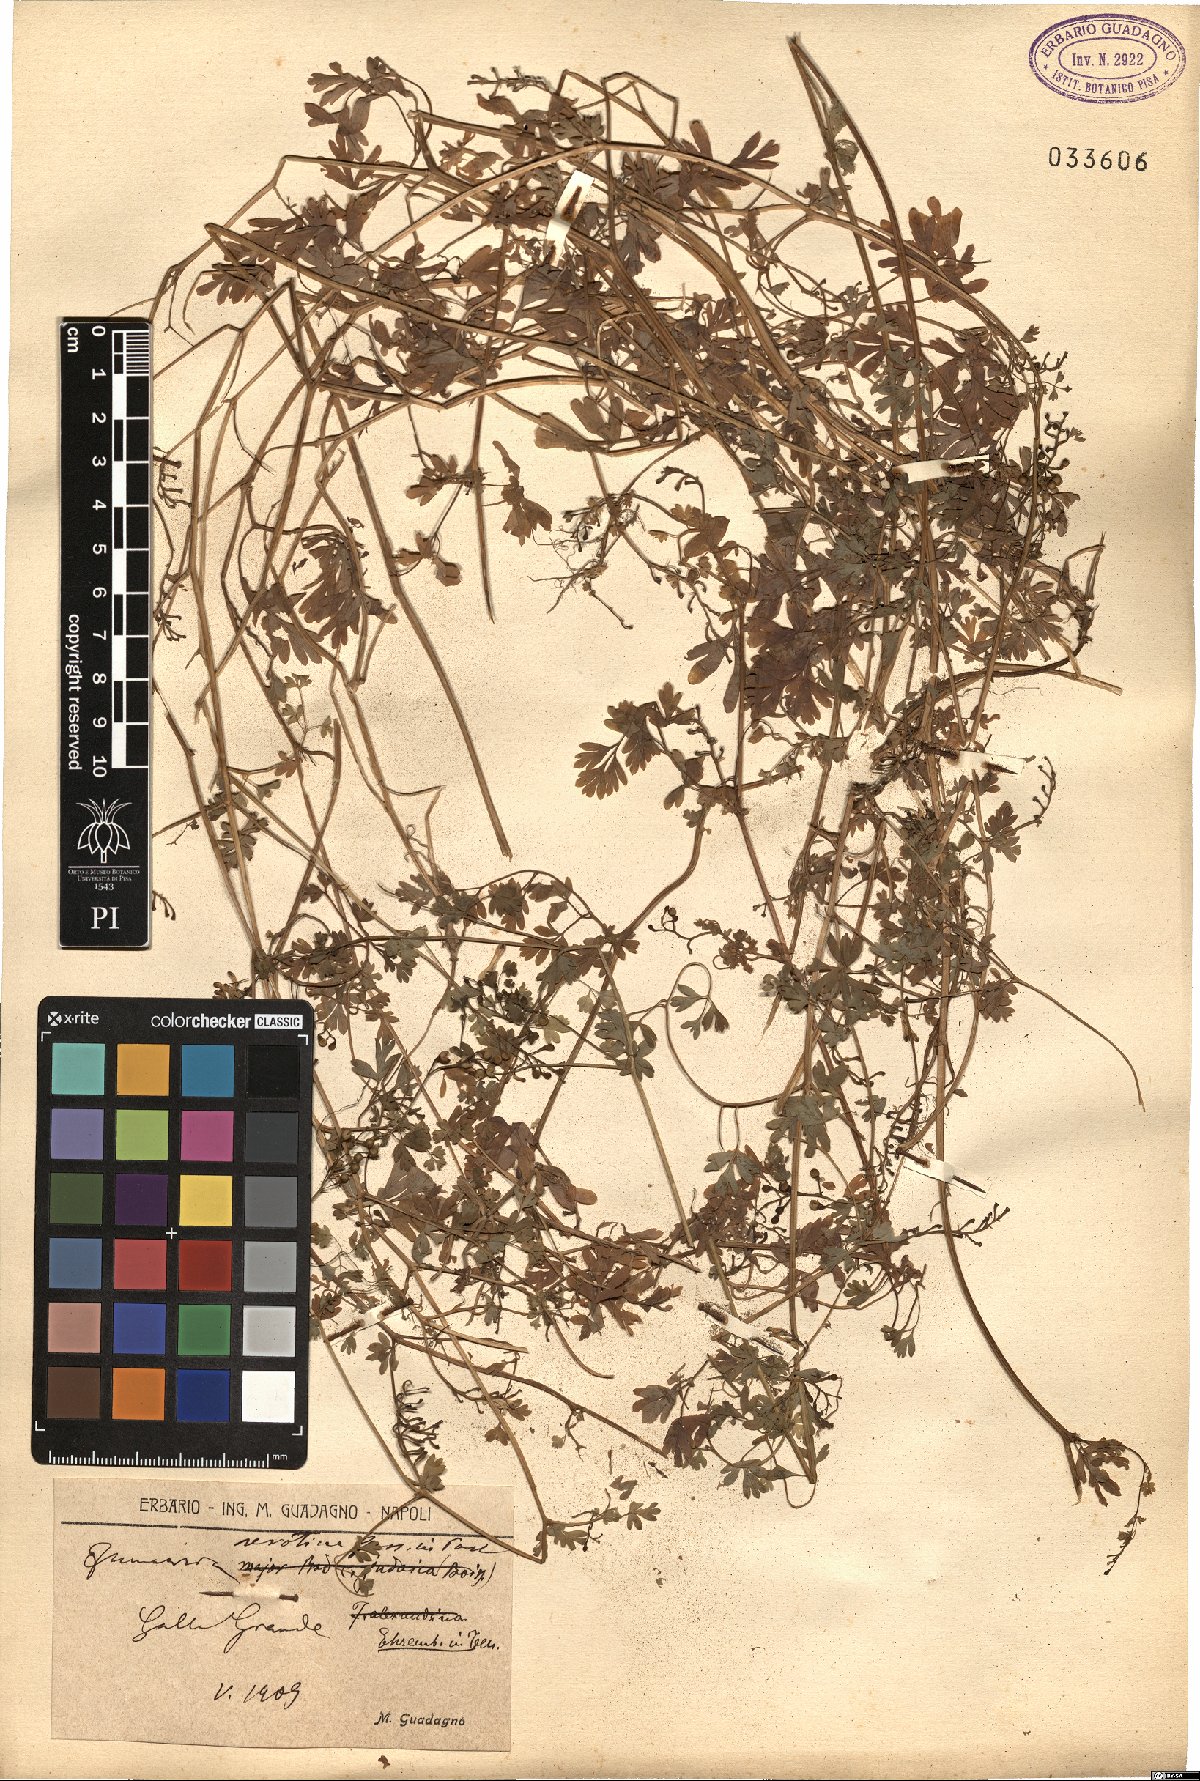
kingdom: Plantae
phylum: Tracheophyta
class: Magnoliopsida
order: Ranunculales
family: Papaveraceae
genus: Fumaria
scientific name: Fumaria bastardii
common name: Tall ramping-fumitory
